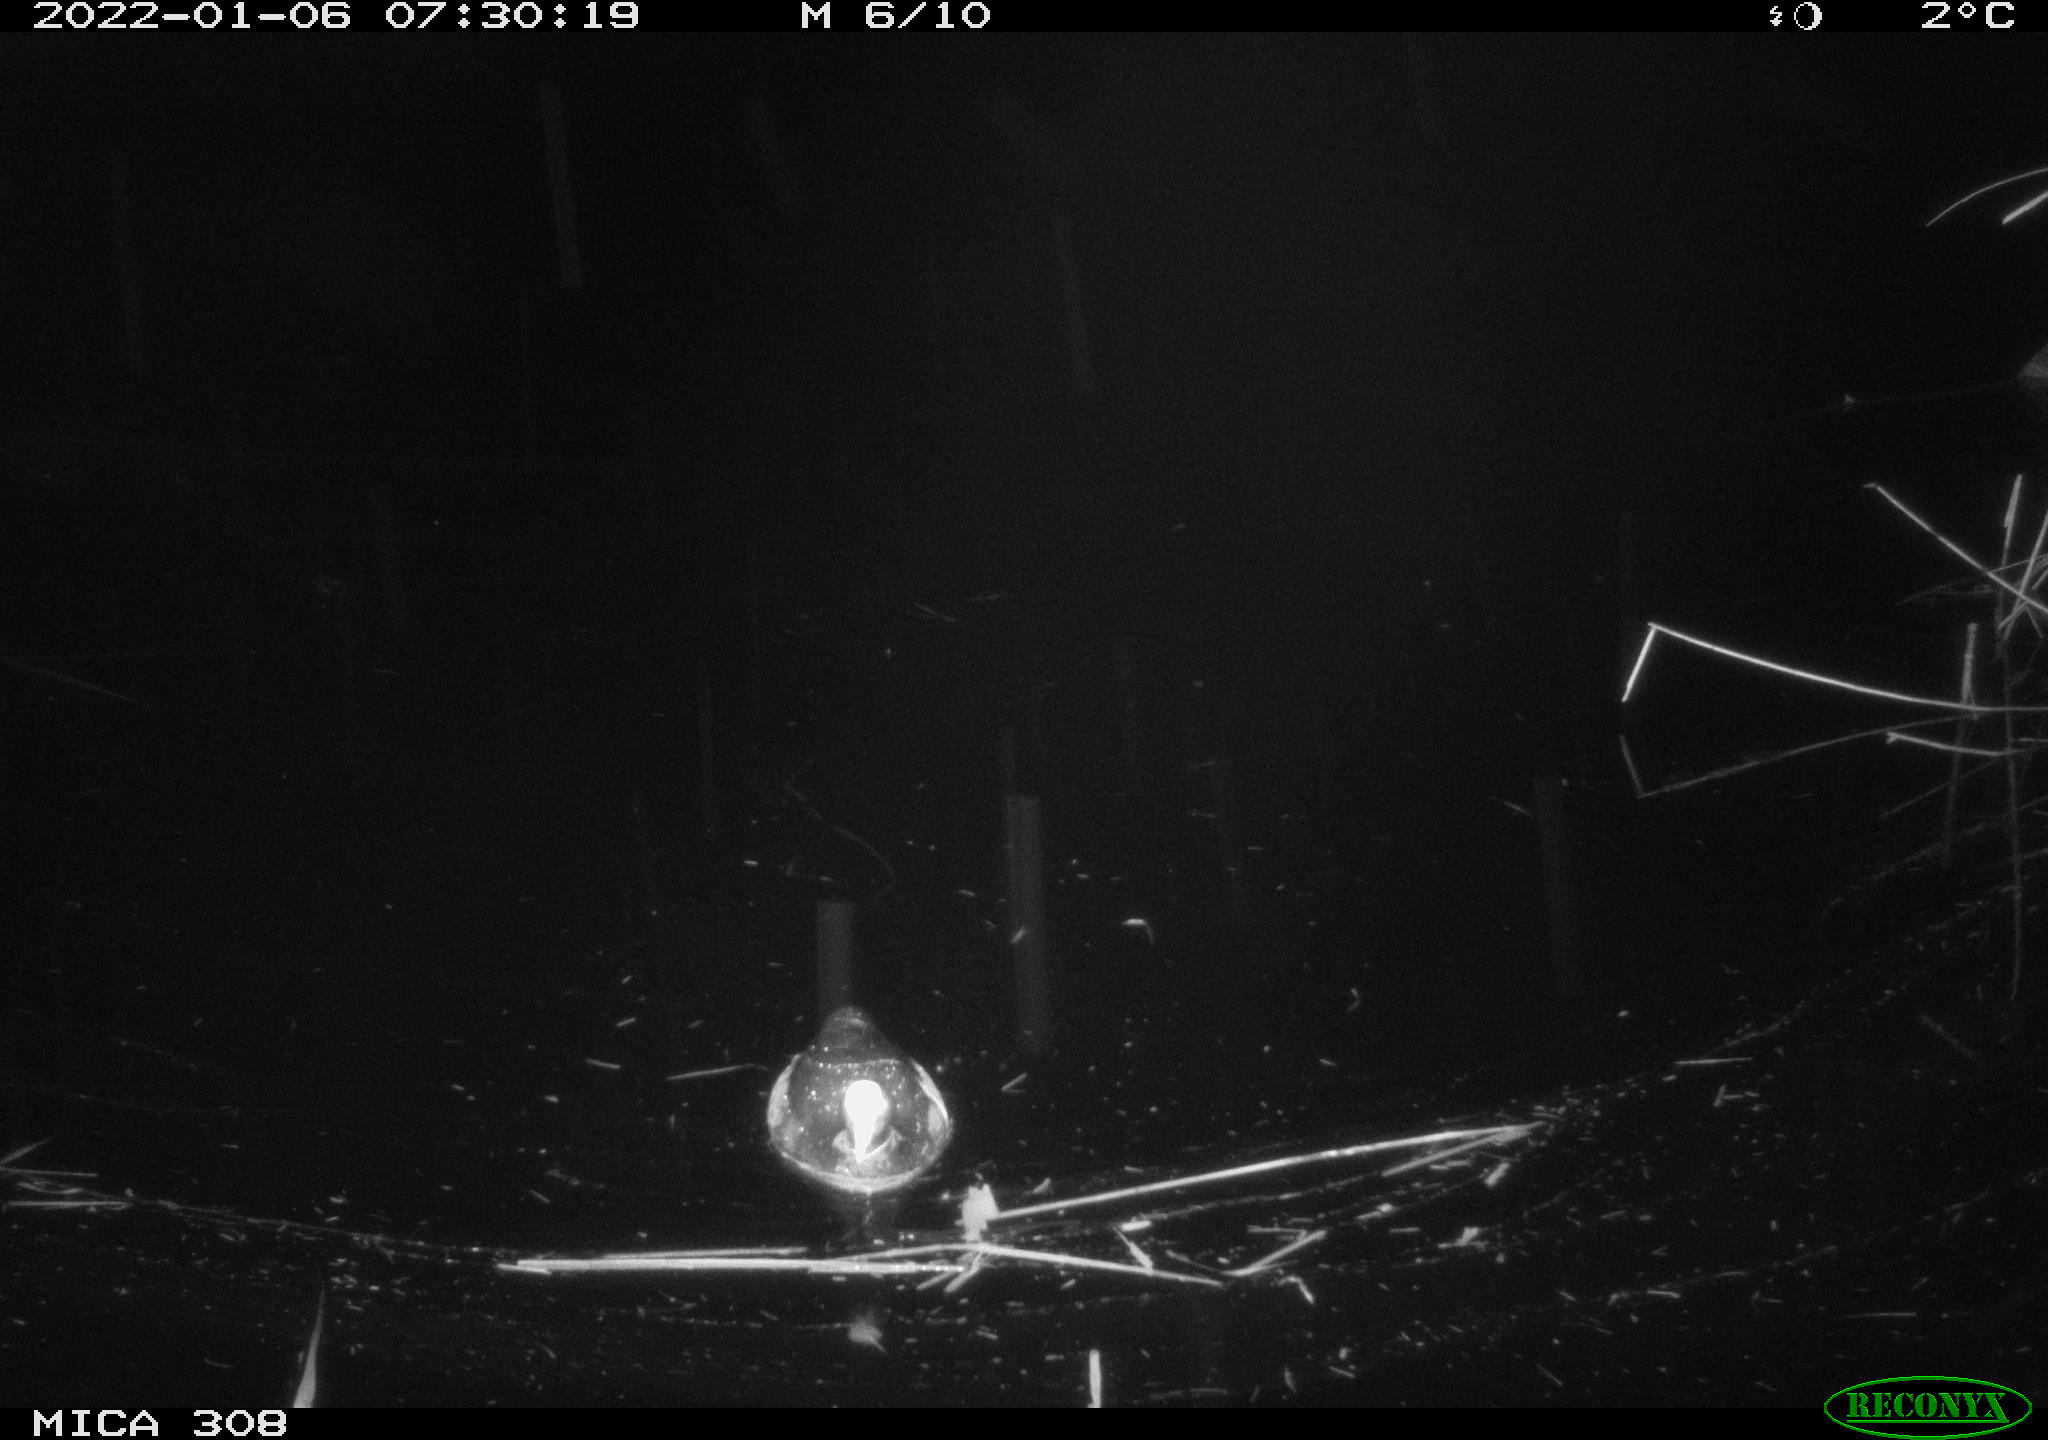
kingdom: Animalia
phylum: Chordata
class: Aves
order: Anseriformes
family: Anatidae
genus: Anas
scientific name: Anas
